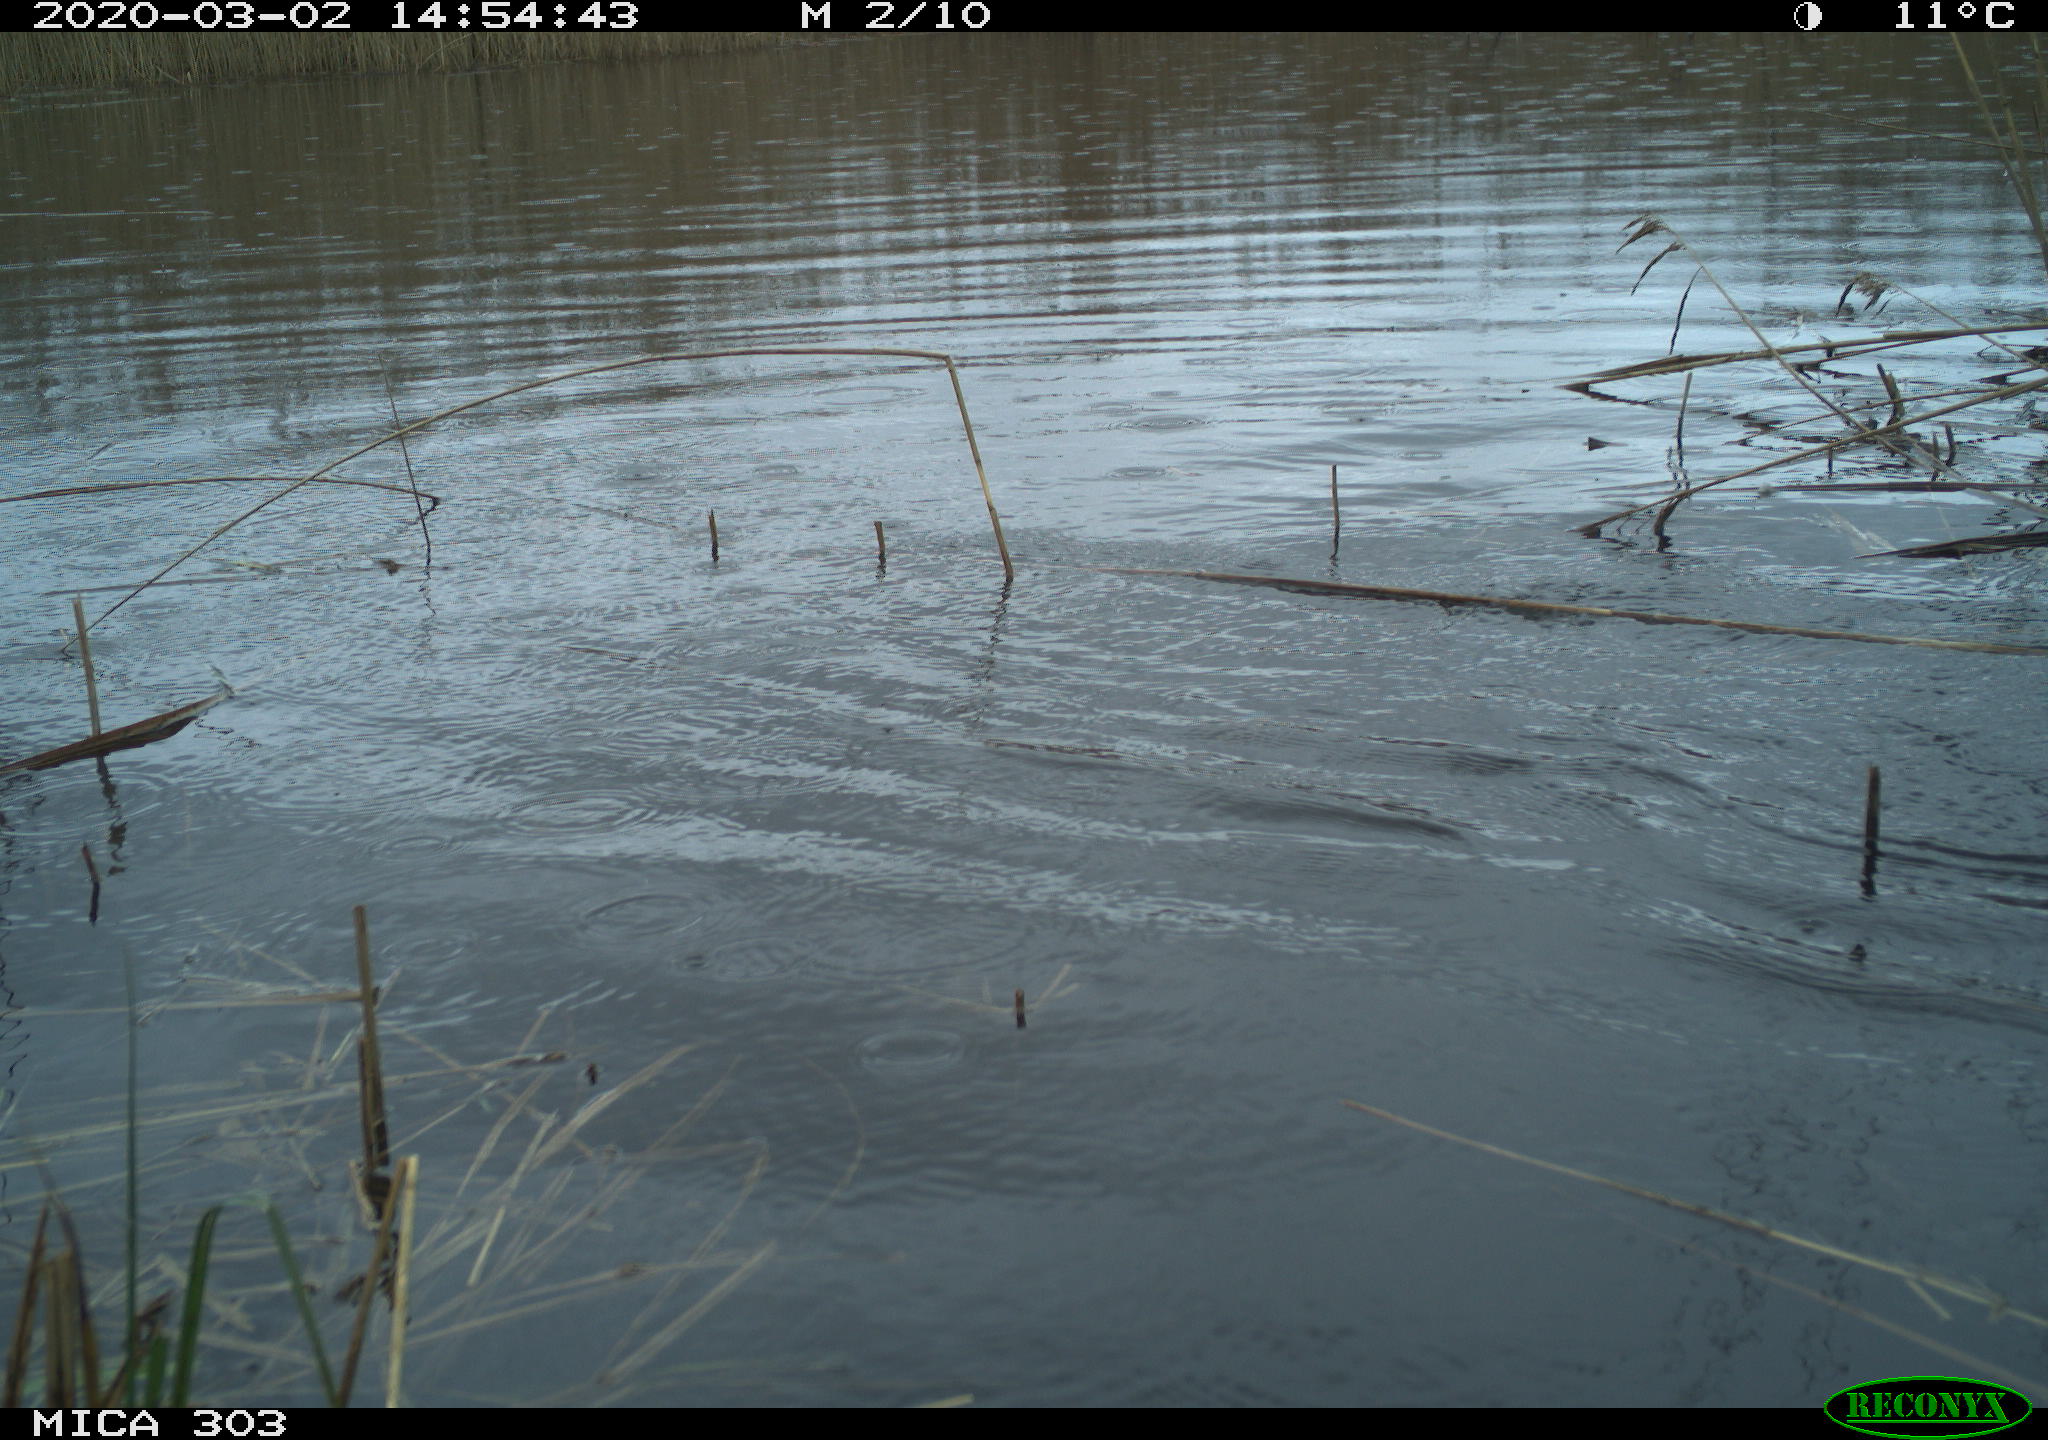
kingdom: Animalia
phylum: Chordata
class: Aves
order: Anseriformes
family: Anatidae
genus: Anser
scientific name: Anser anser
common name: Greylag goose
